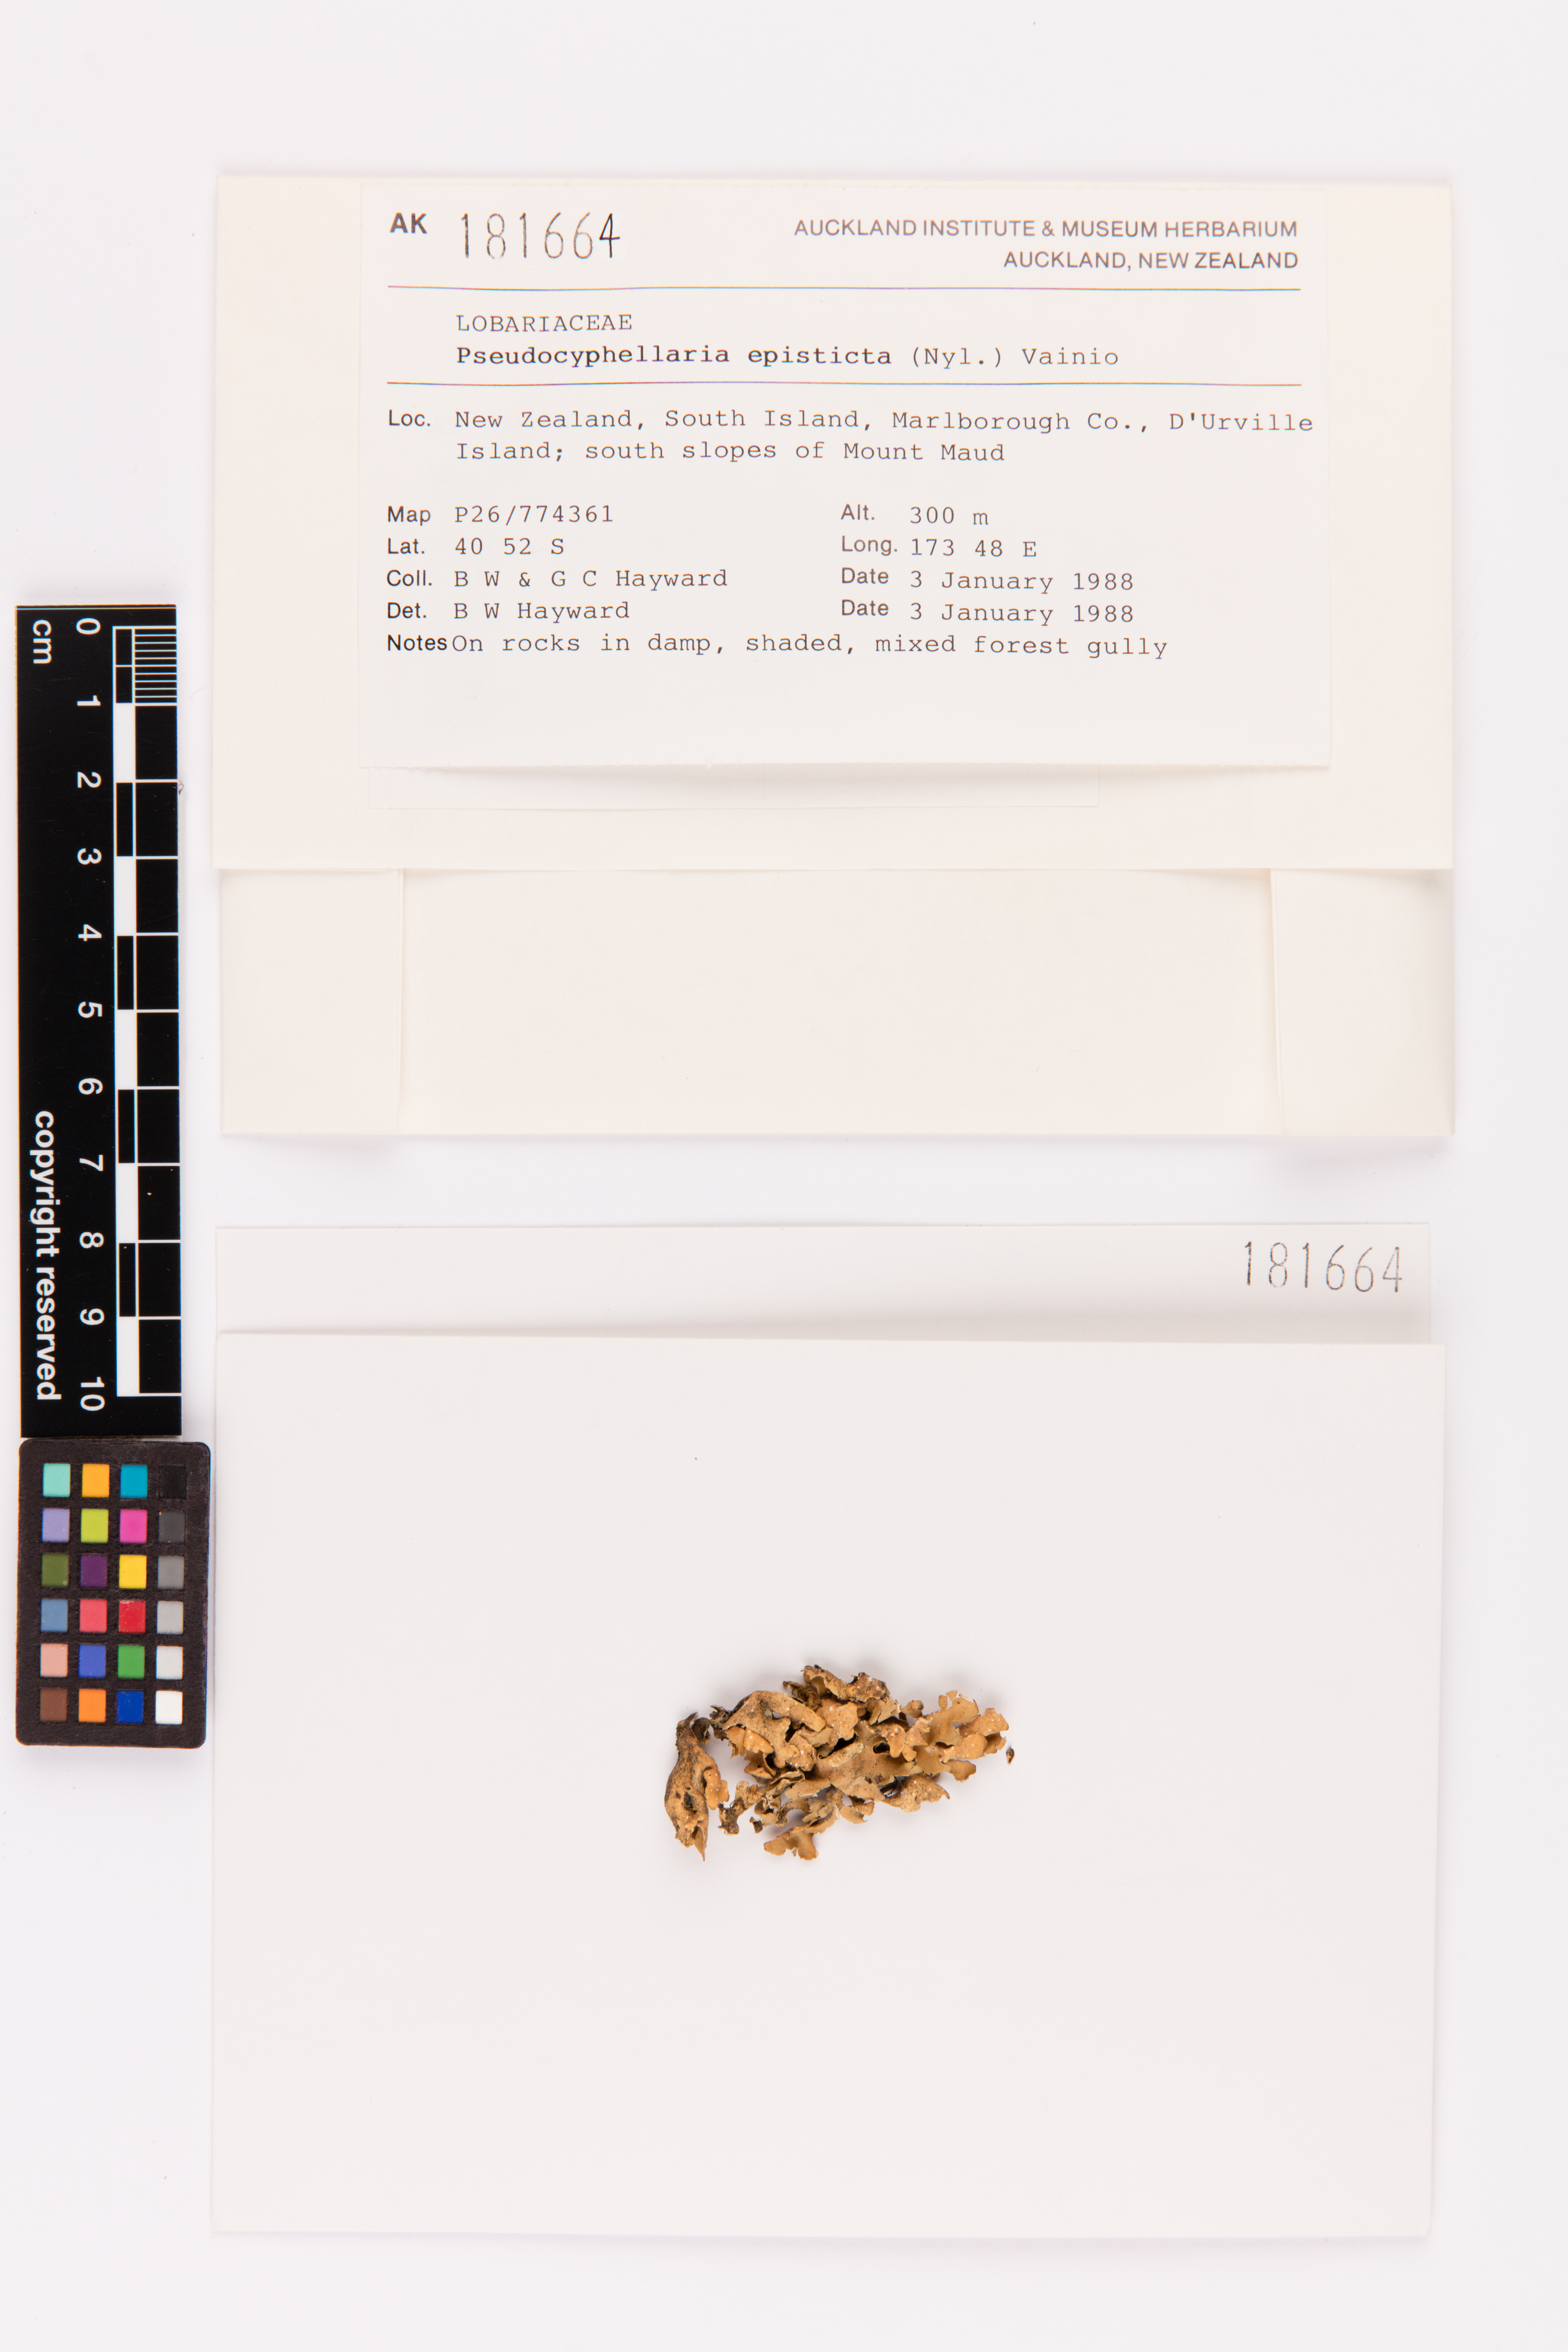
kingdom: Fungi
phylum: Ascomycota
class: Lecanoromycetes
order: Peltigerales
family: Lobariaceae
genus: Pseudocyphellaria
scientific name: Pseudocyphellaria episticta
